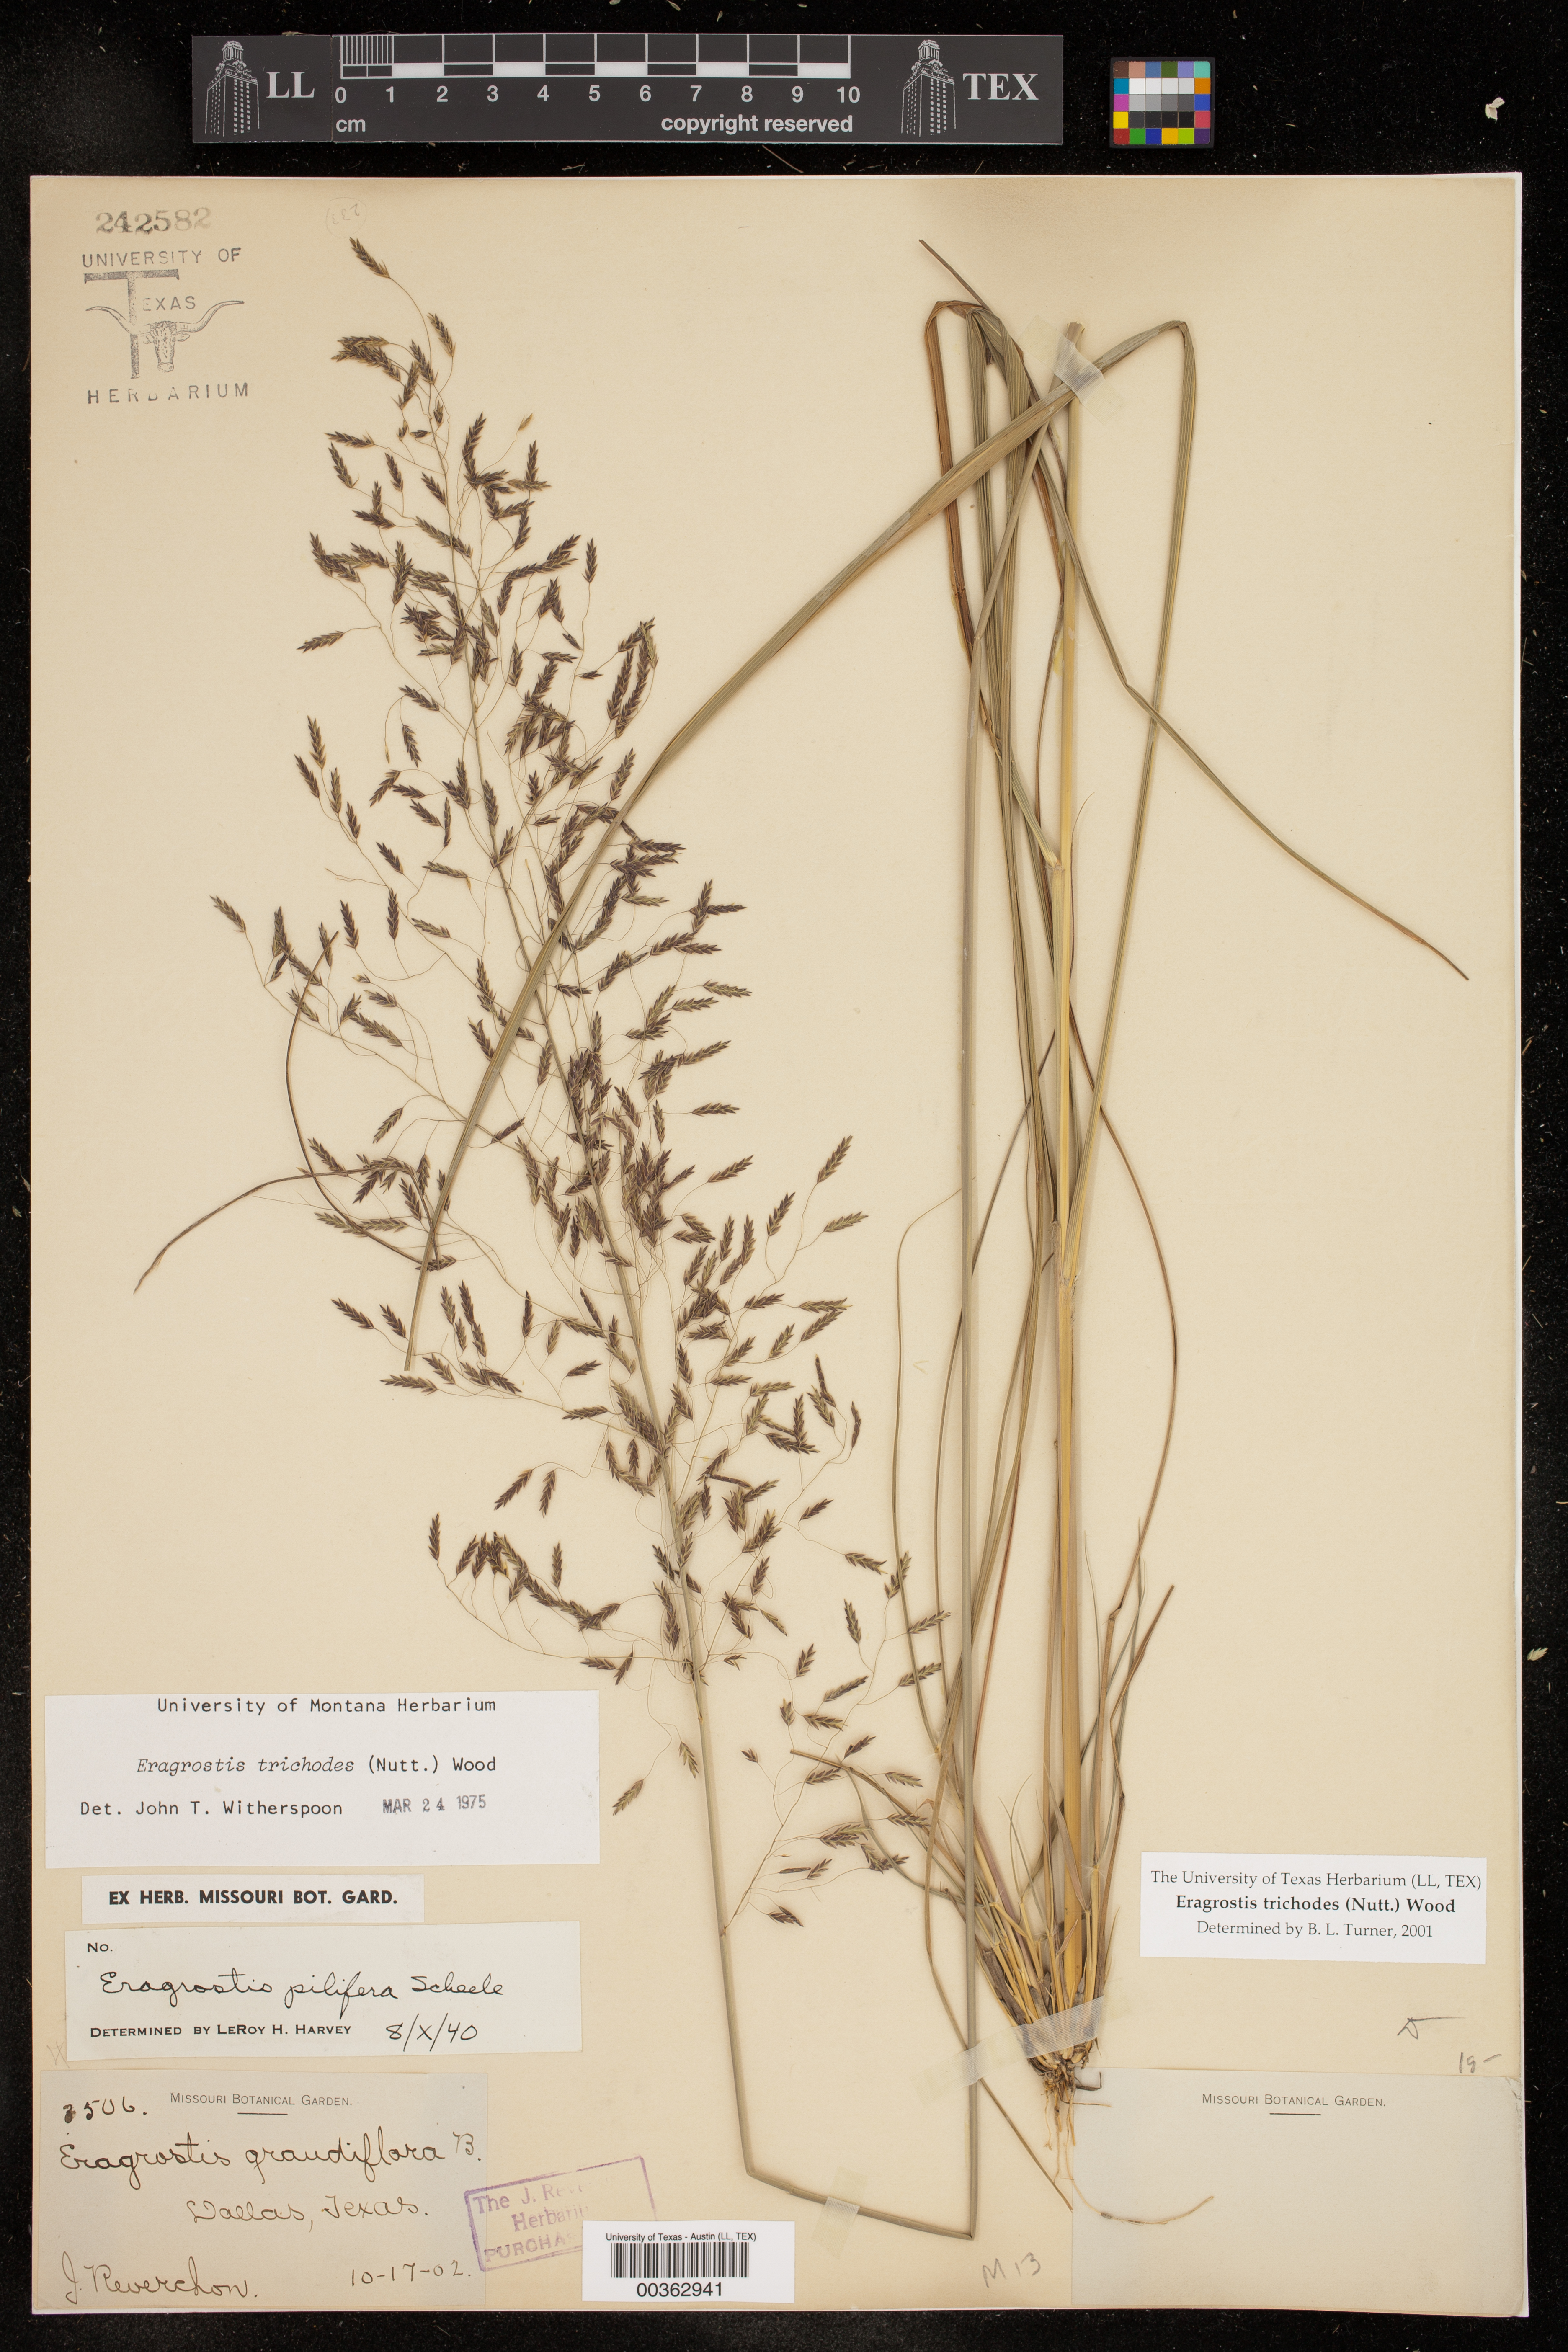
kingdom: Plantae
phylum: Tracheophyta
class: Liliopsida
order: Poales
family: Poaceae
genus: Eragrostis
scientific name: Eragrostis trichodes
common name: Sand love grass
